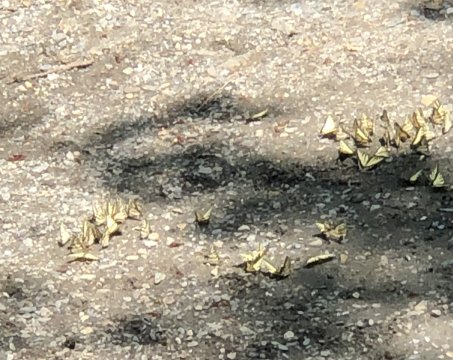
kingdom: Animalia
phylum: Arthropoda
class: Insecta
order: Lepidoptera
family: Papilionidae
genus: Pterourus
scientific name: Pterourus canadensis
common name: Canadian Tiger Swallowtail
